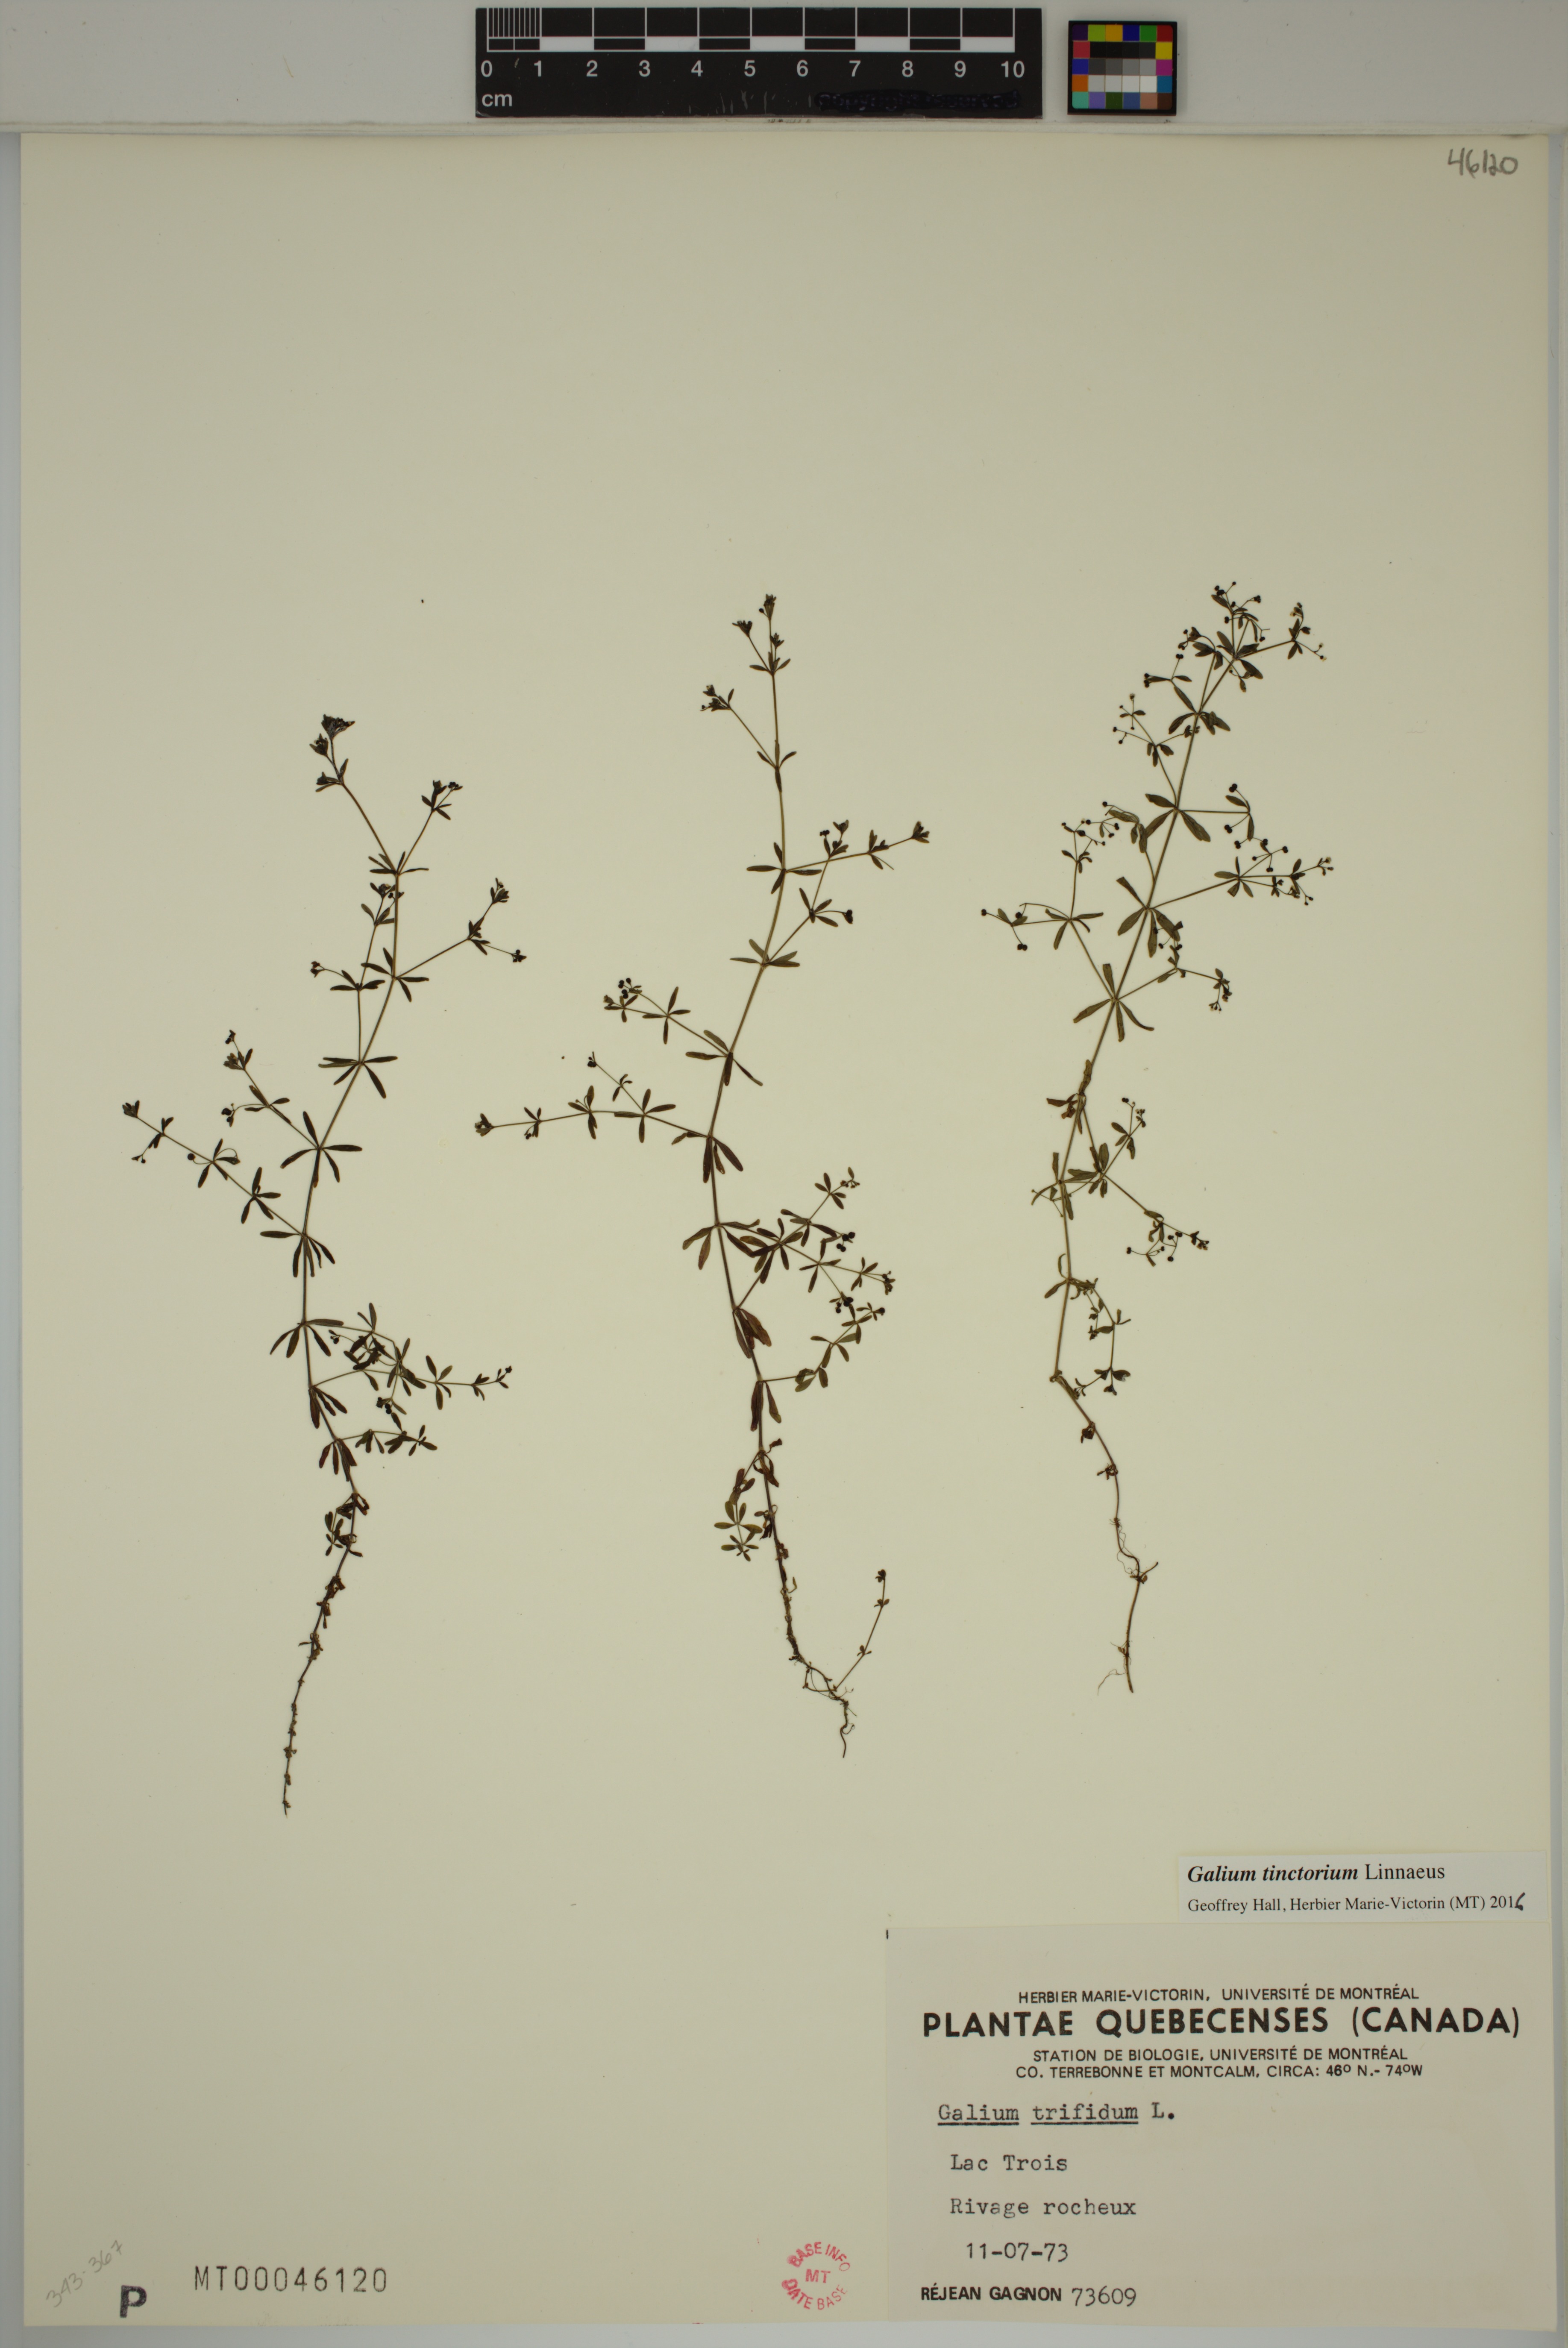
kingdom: Plantae
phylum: Tracheophyta
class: Magnoliopsida
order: Gentianales
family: Rubiaceae
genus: Galium
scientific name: Galium tinctorium
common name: Bedstraw
